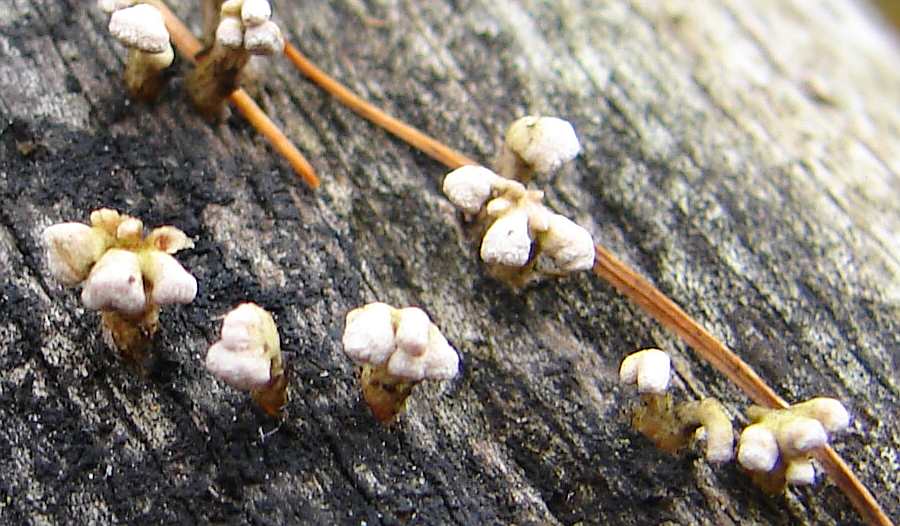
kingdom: Fungi
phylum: Basidiomycota
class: Dacrymycetes
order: Dacrymycetales
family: Dacrymycetaceae
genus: Ditiola
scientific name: Ditiola radicata
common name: rod-tåresvamp
